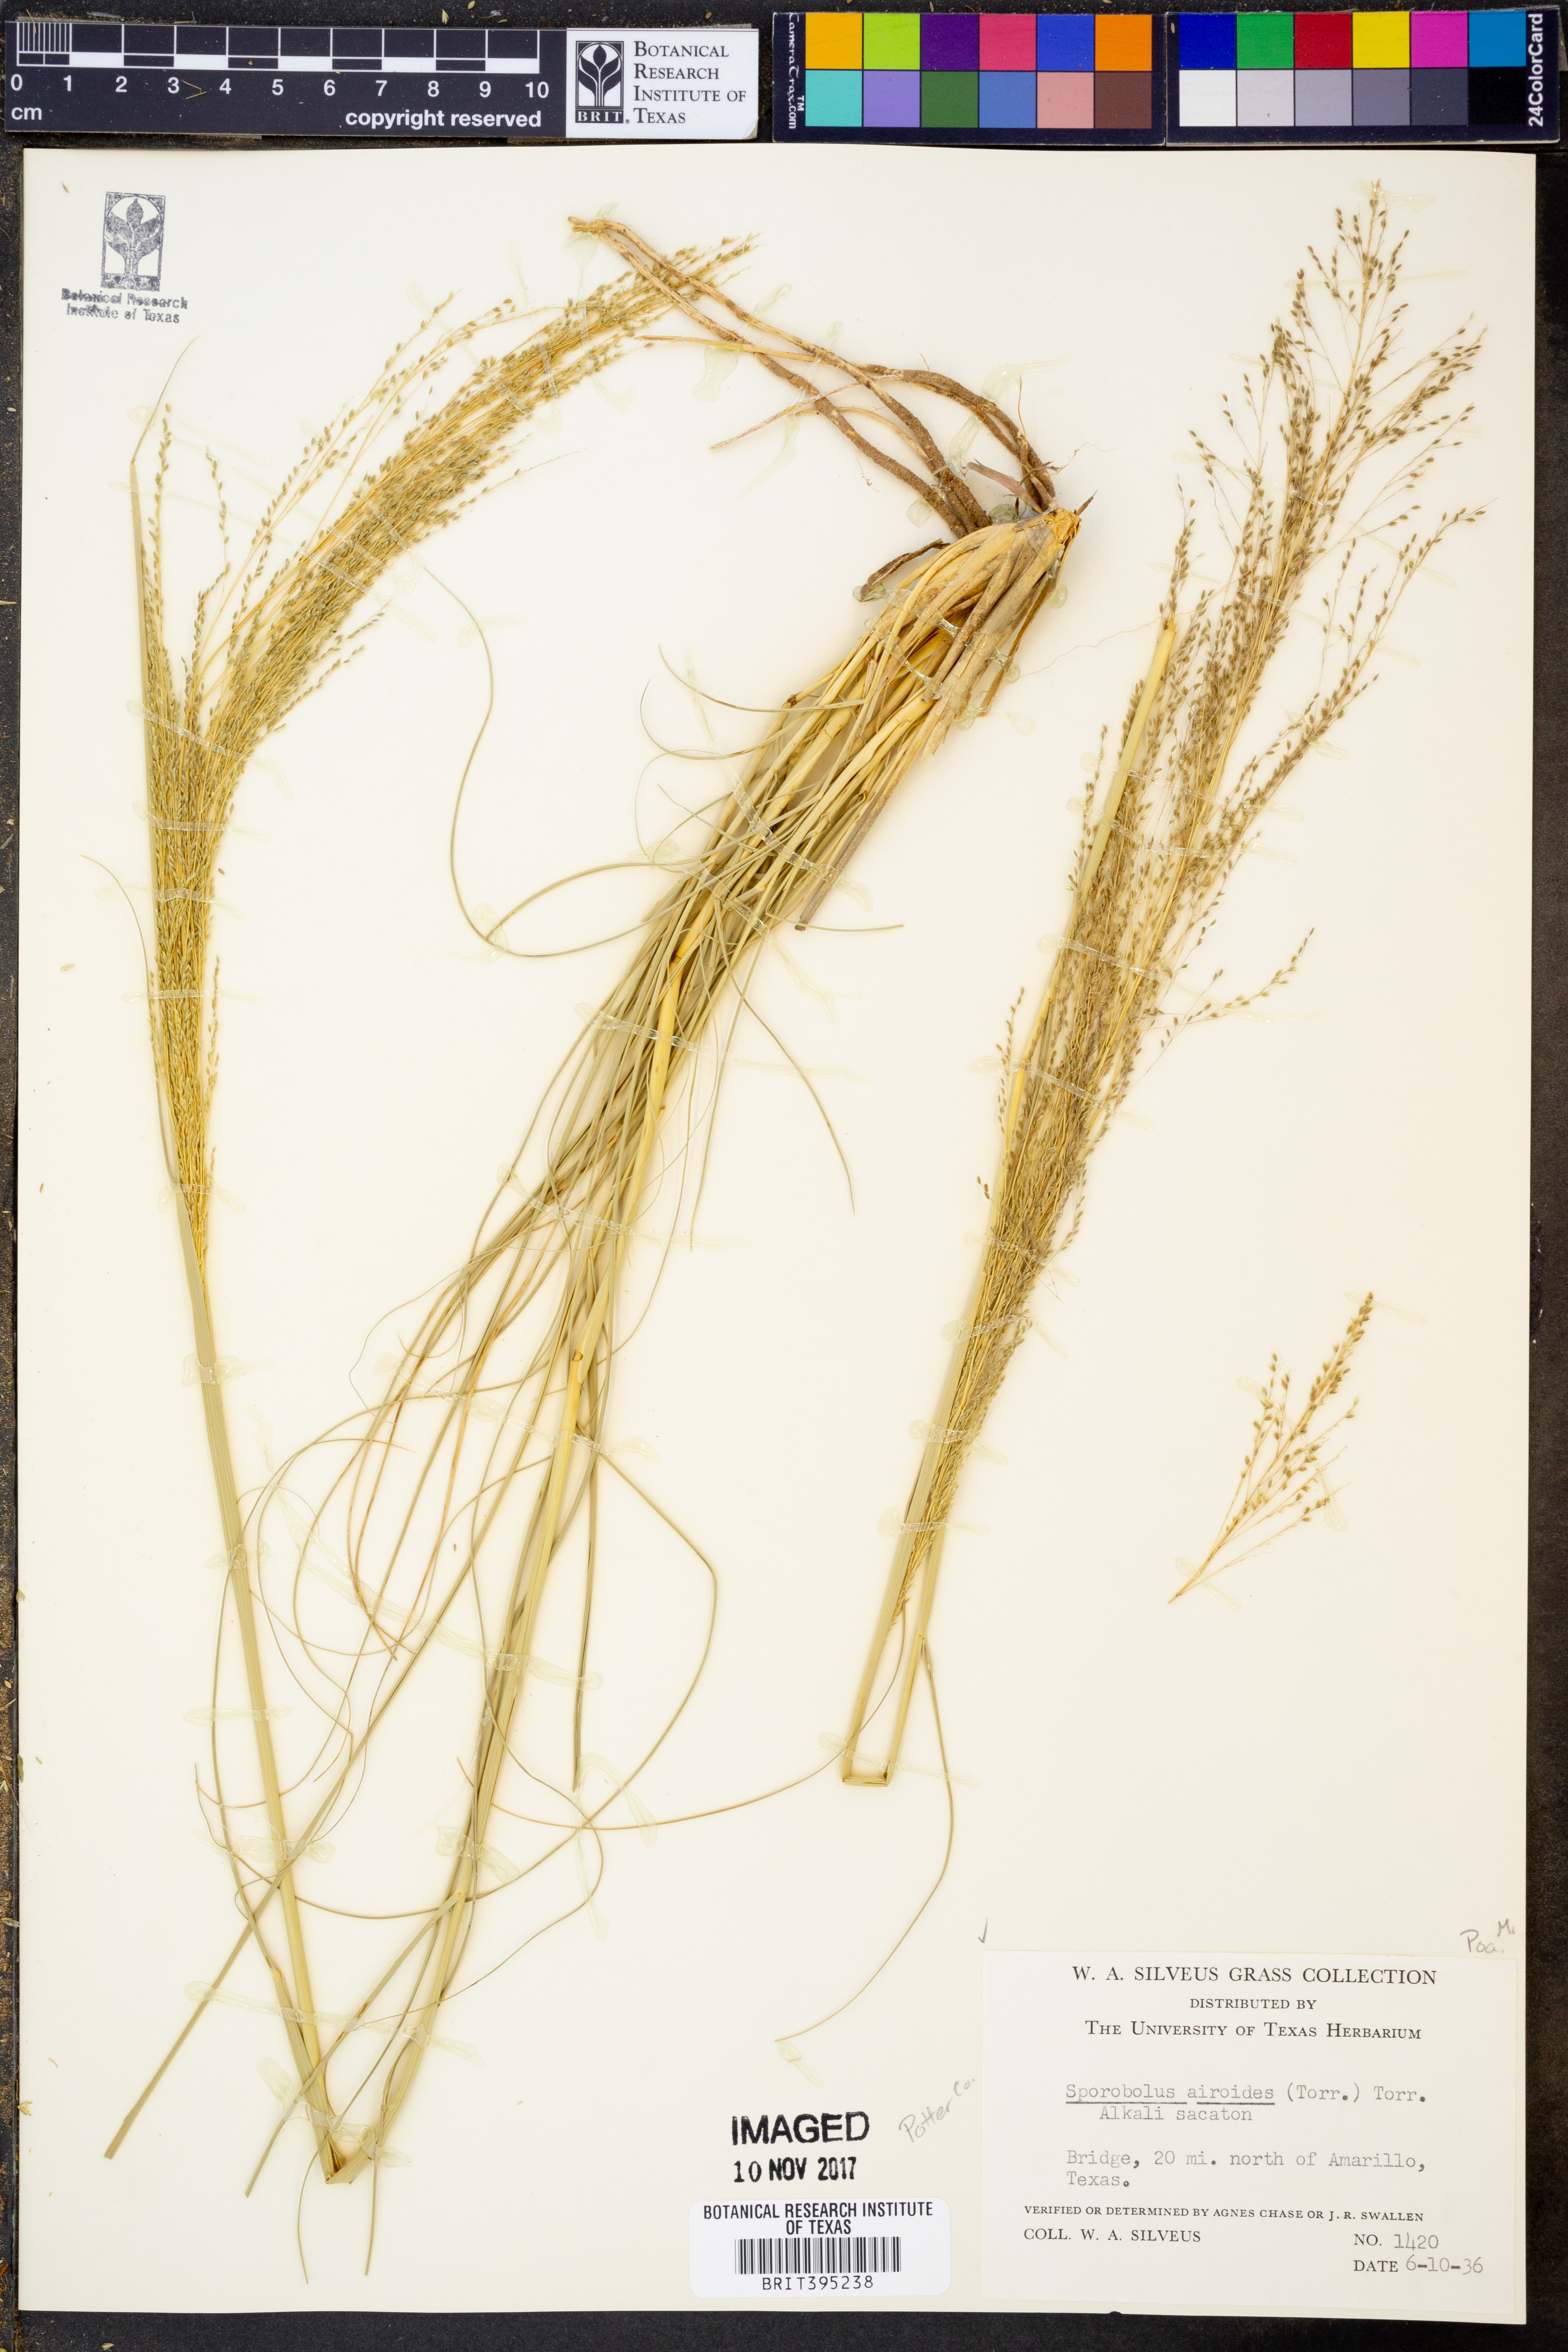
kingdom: Plantae
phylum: Tracheophyta
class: Liliopsida
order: Poales
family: Poaceae
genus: Sporobolus
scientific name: Sporobolus airoides
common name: Alkali sacaton
